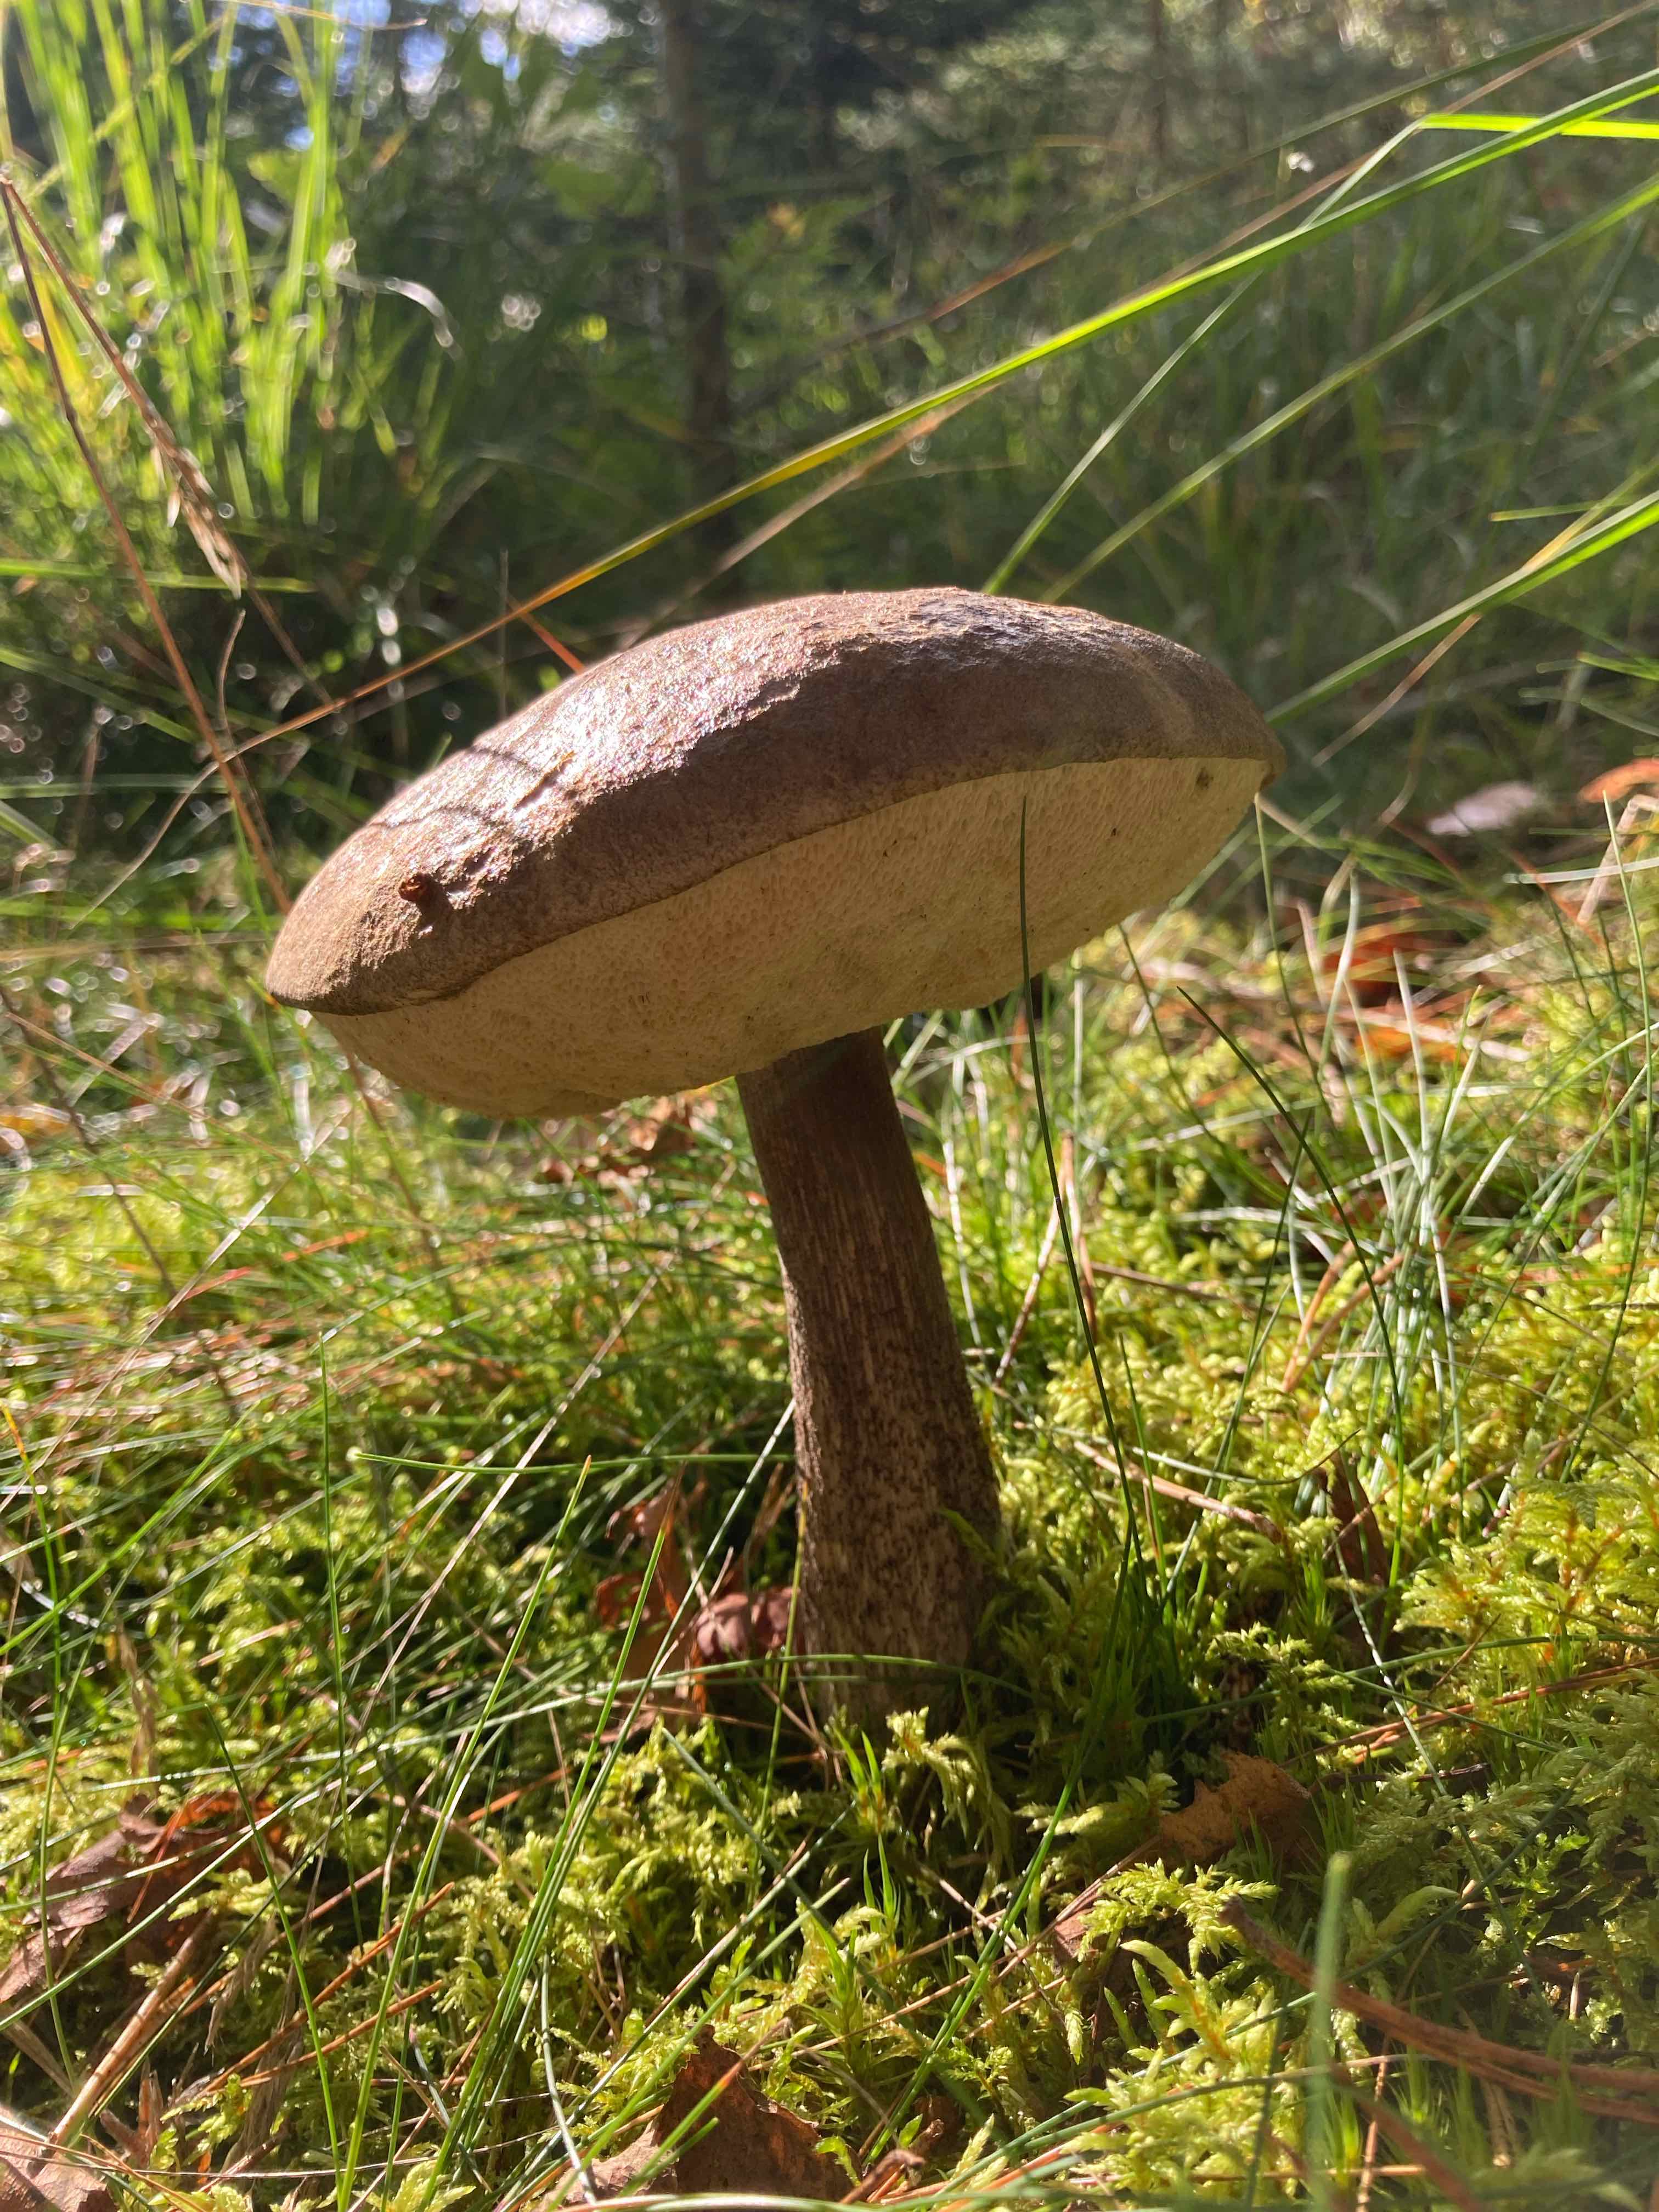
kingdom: Fungi
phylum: Basidiomycota
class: Agaricomycetes
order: Boletales
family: Boletaceae
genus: Leccinum
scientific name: Leccinum
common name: skælrørhat
